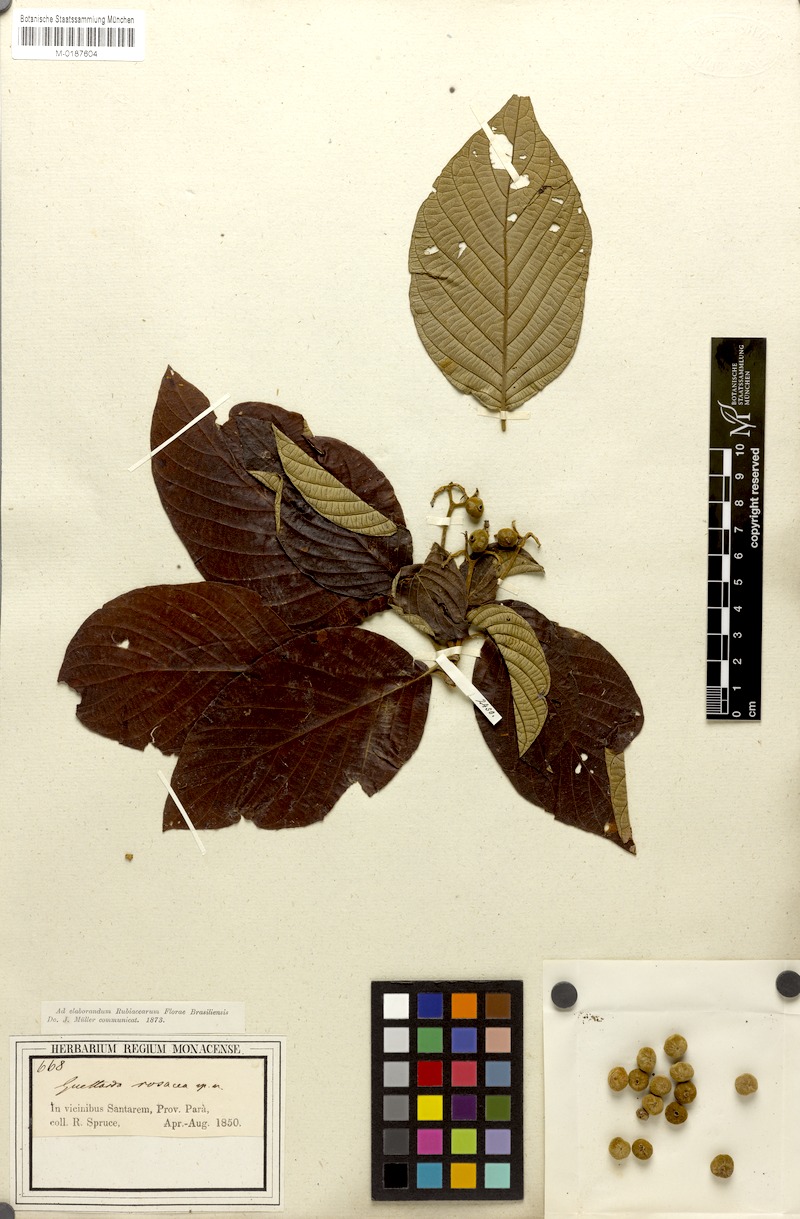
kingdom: Plantae
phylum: Tracheophyta
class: Magnoliopsida
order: Gentianales
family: Rubiaceae
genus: Guettarda
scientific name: Guettarda spruceana
